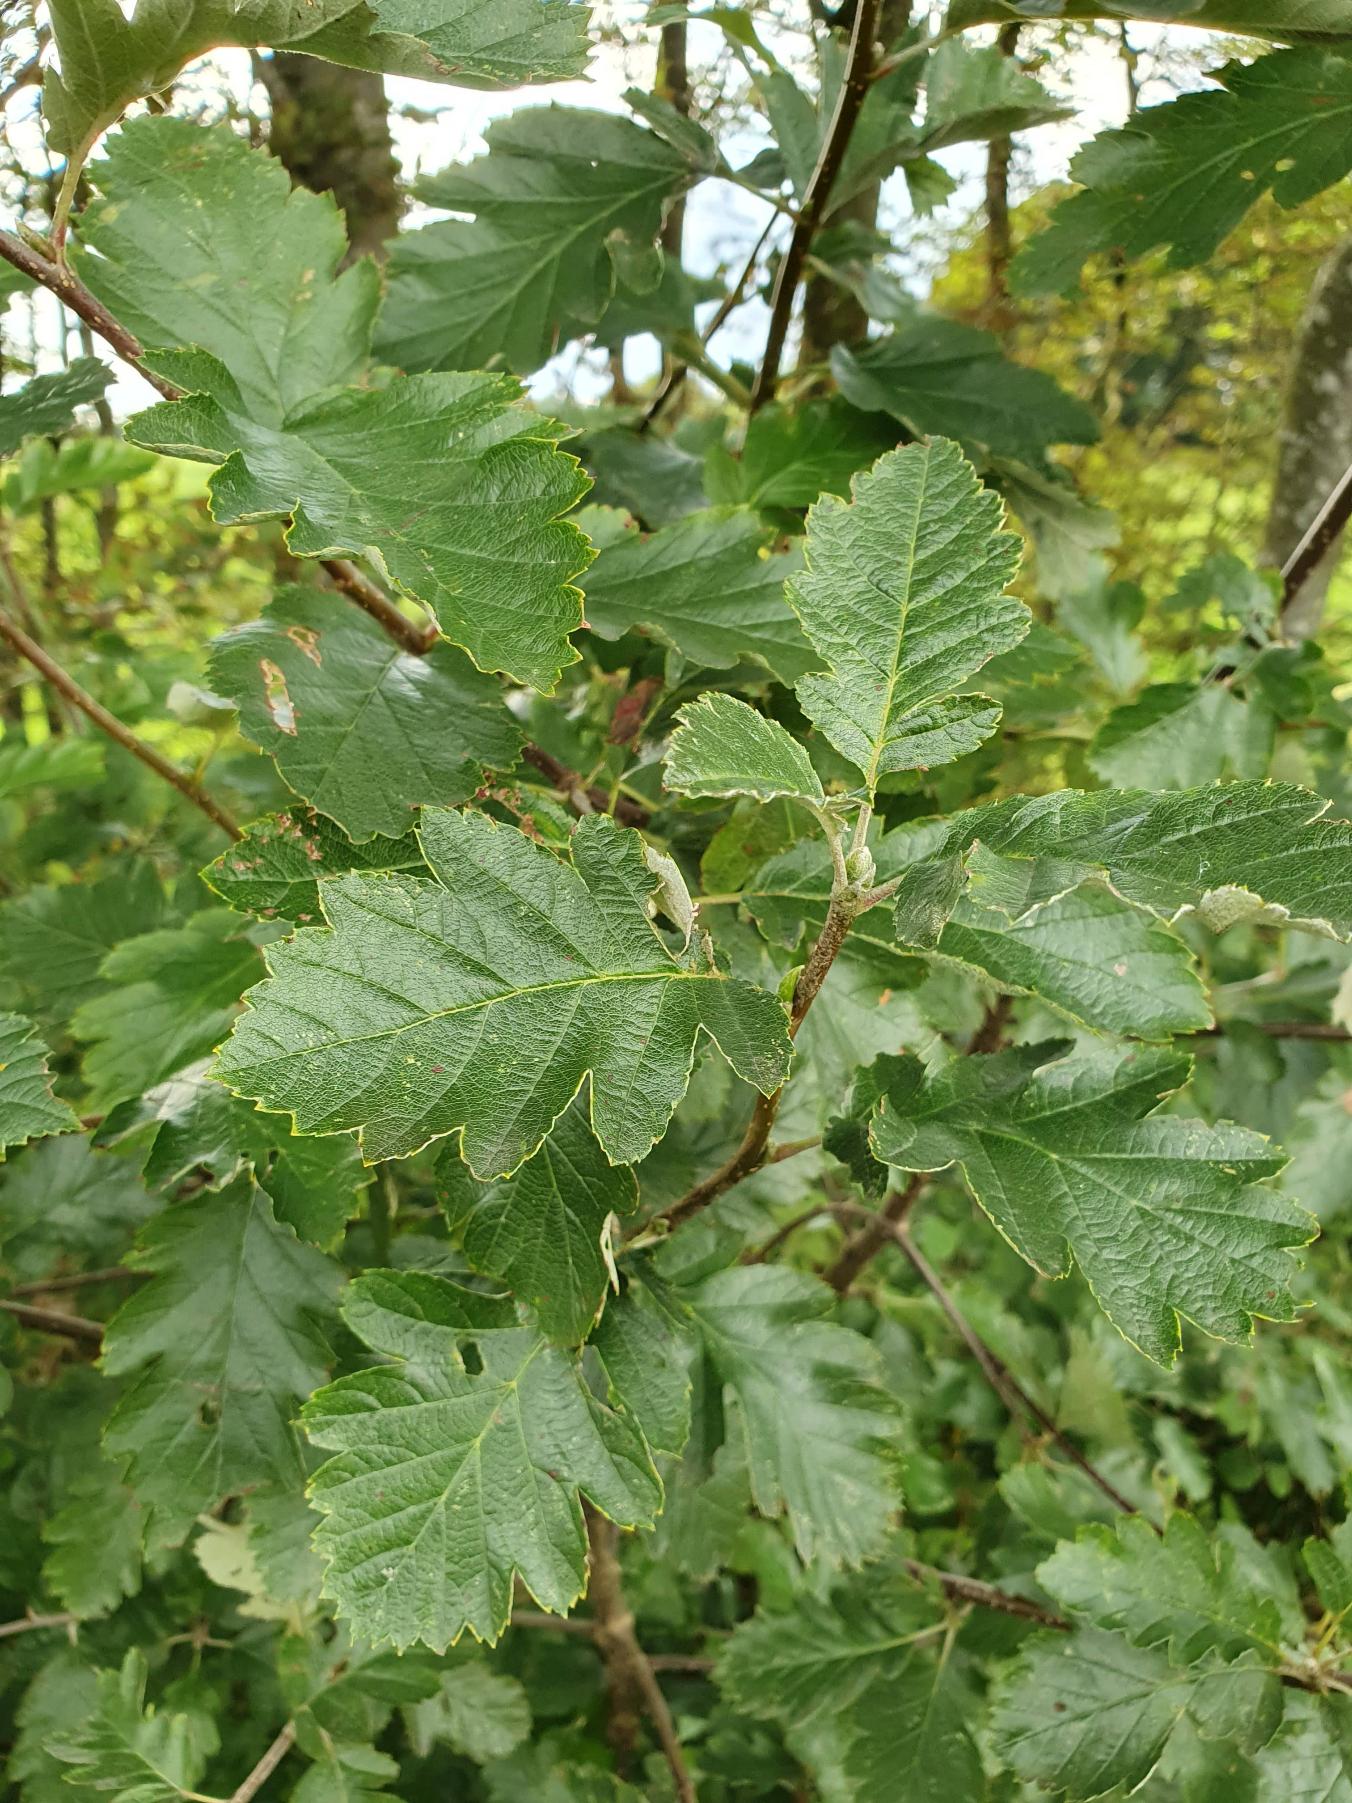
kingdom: Plantae
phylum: Tracheophyta
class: Magnoliopsida
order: Rosales
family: Rosaceae
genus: Scandosorbus
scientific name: Scandosorbus intermedia
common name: Selje-røn
